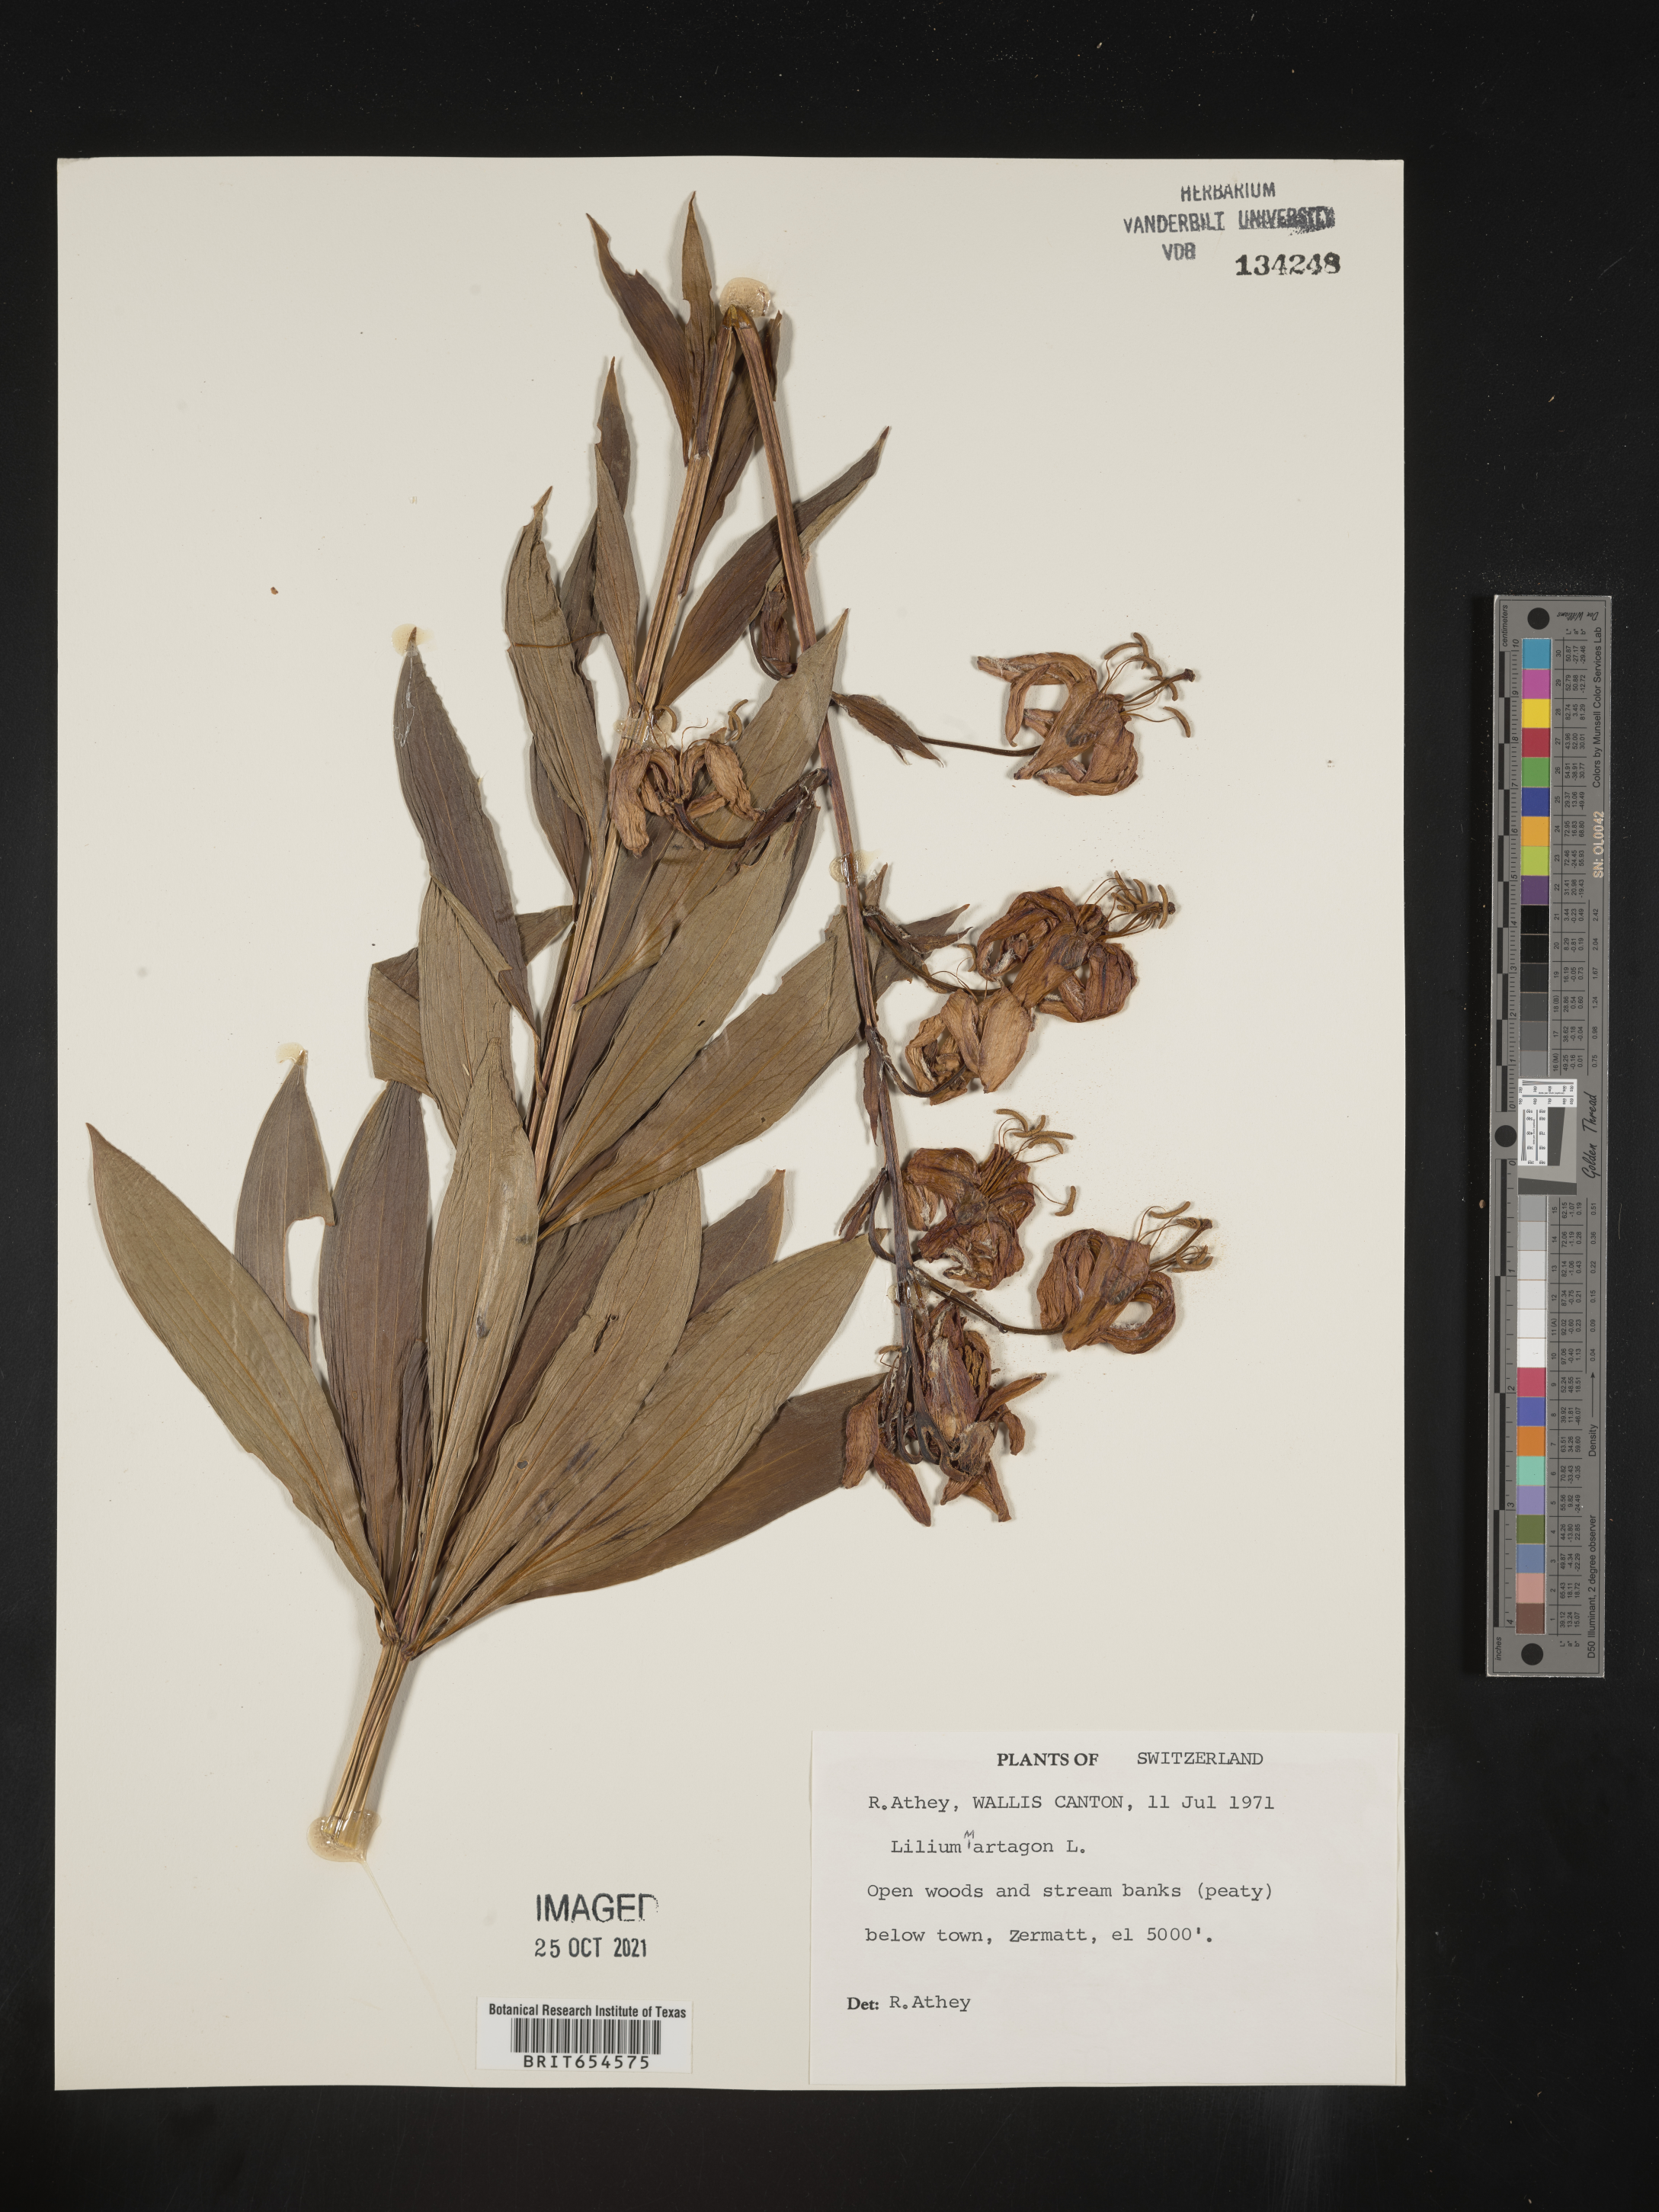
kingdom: Plantae
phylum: Tracheophyta
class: Liliopsida
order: Liliales
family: Liliaceae
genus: Lilium
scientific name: Lilium
